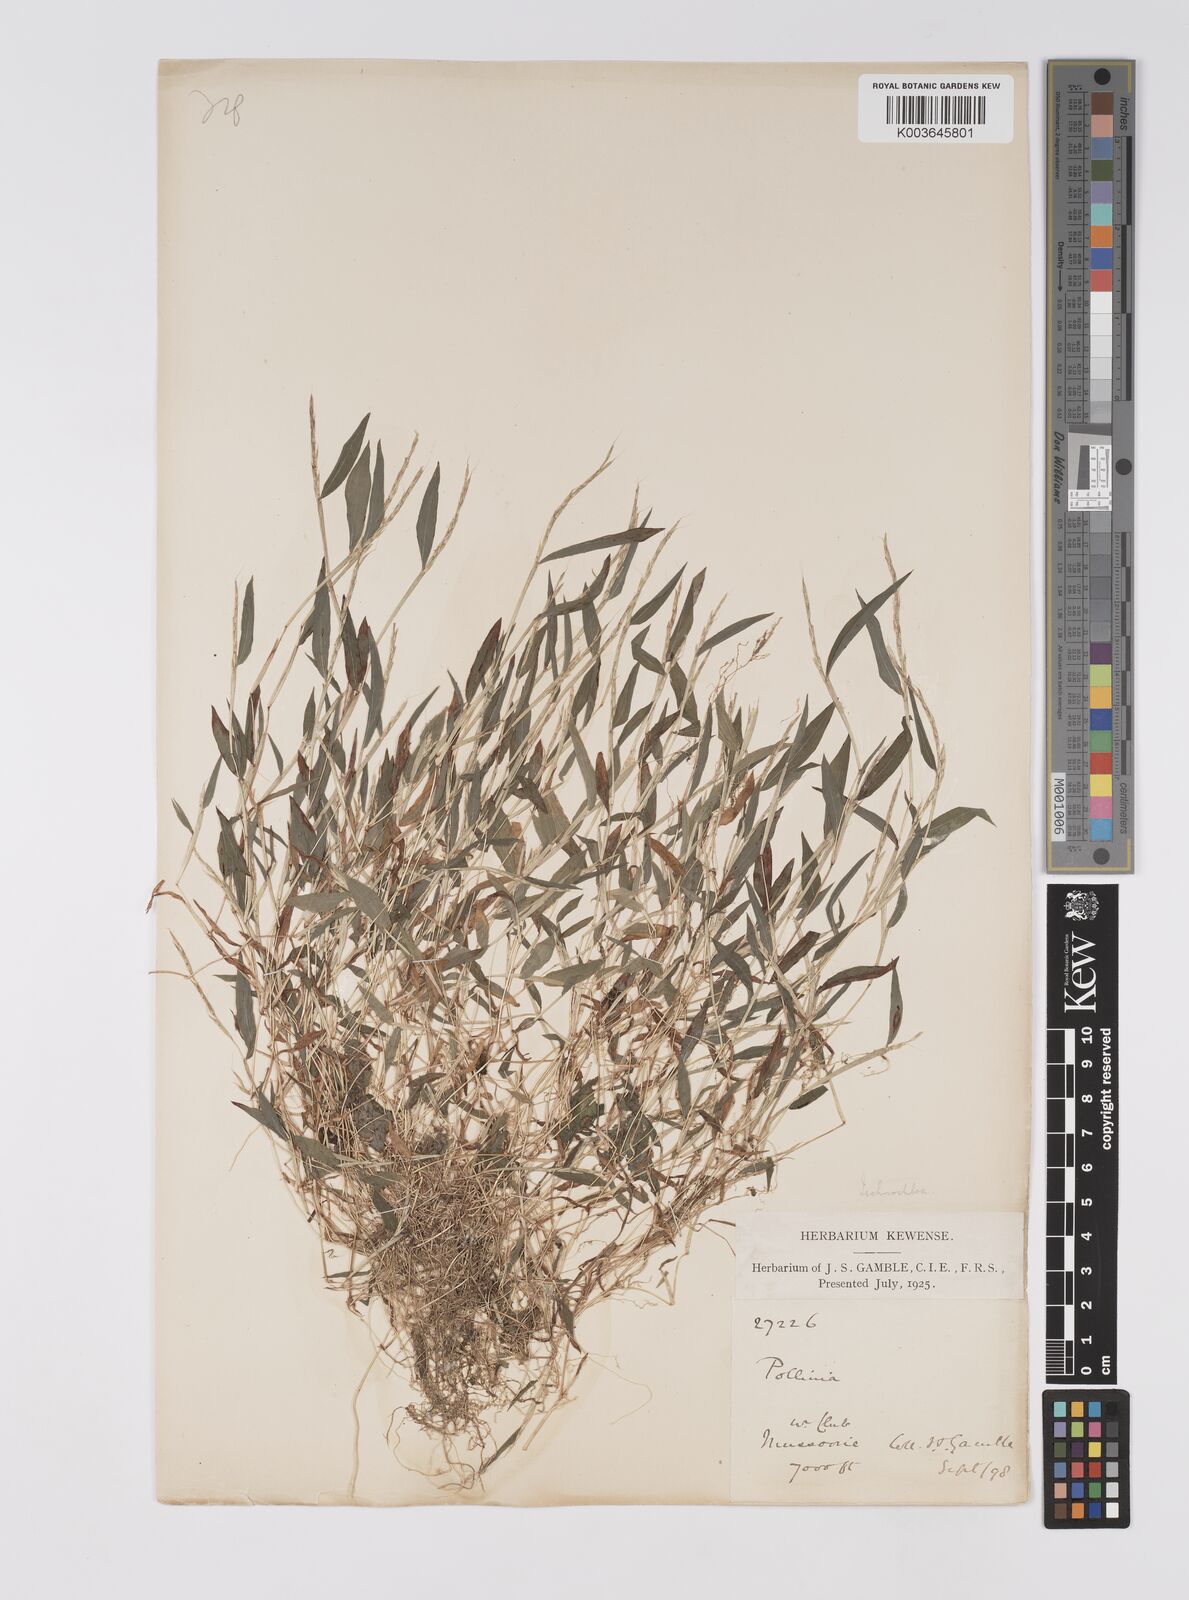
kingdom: Plantae
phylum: Tracheophyta
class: Liliopsida
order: Poales
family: Poaceae
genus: Microstegium
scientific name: Microstegium falconeri
